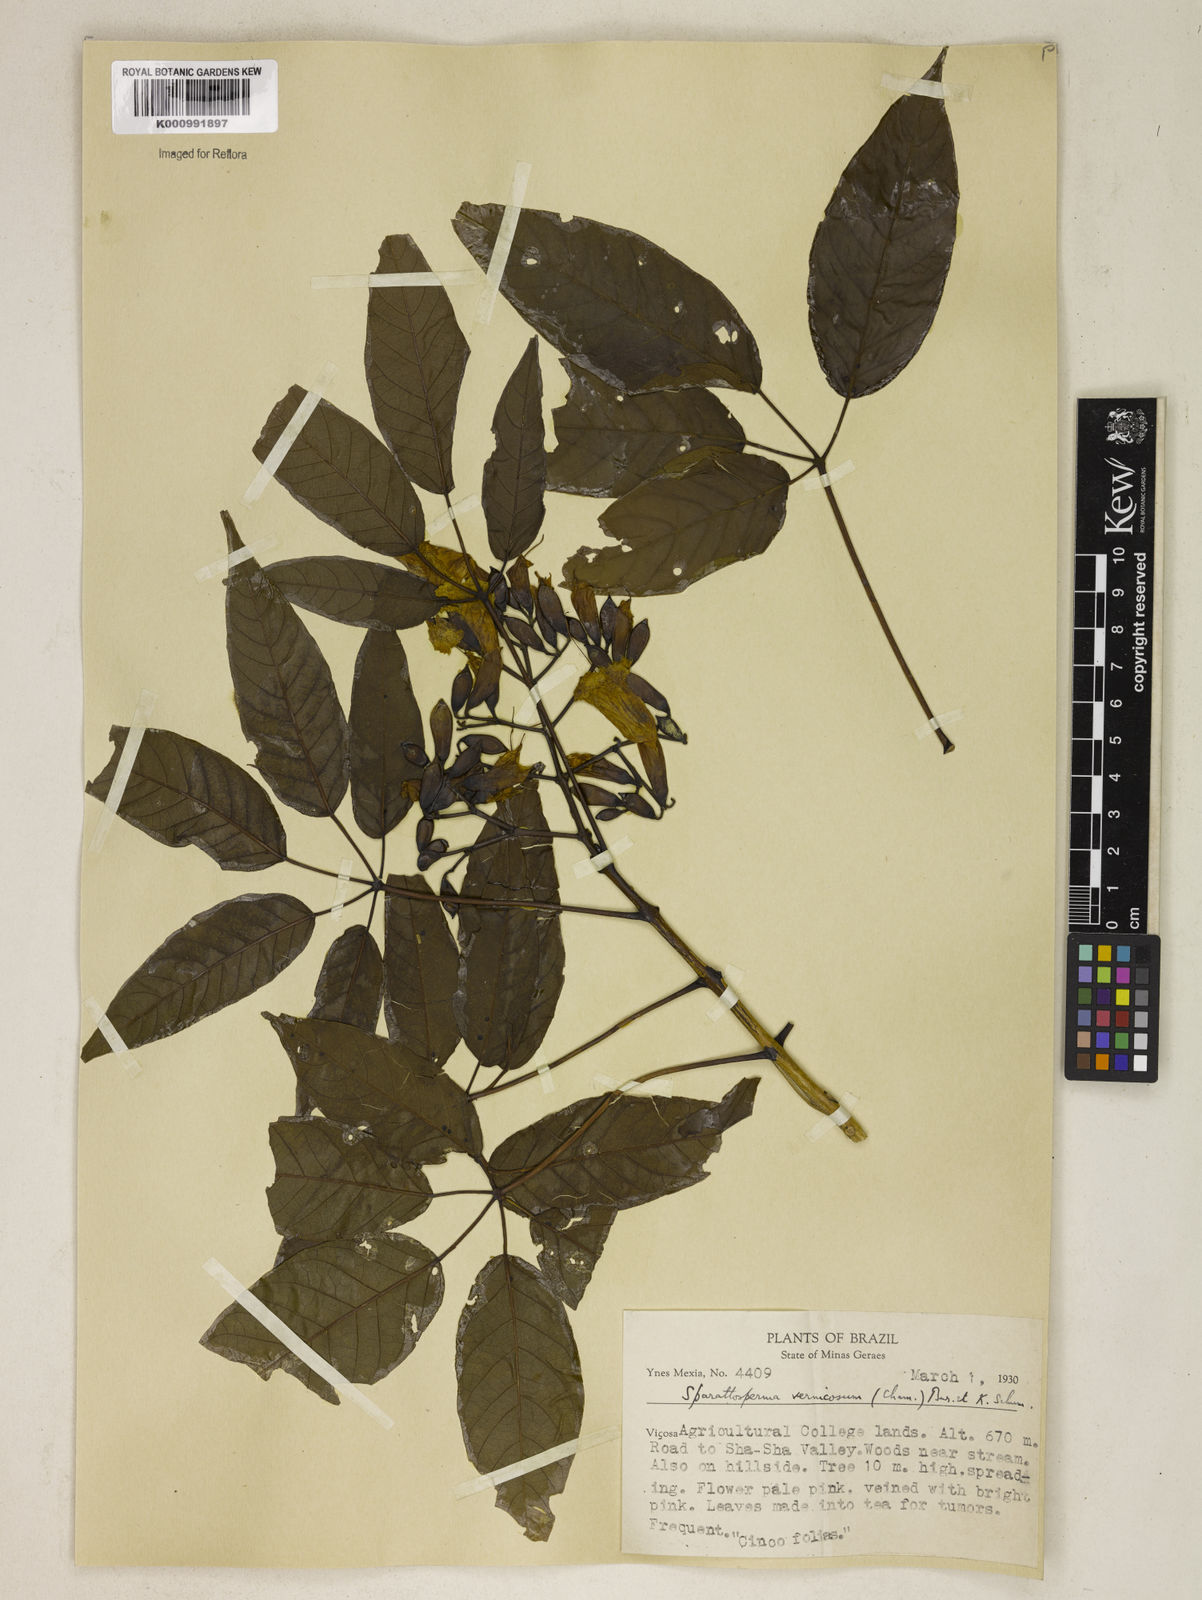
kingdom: Plantae
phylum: Tracheophyta
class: Magnoliopsida
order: Lamiales
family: Bignoniaceae
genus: Sparattosperma
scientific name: Sparattosperma leucanthum
